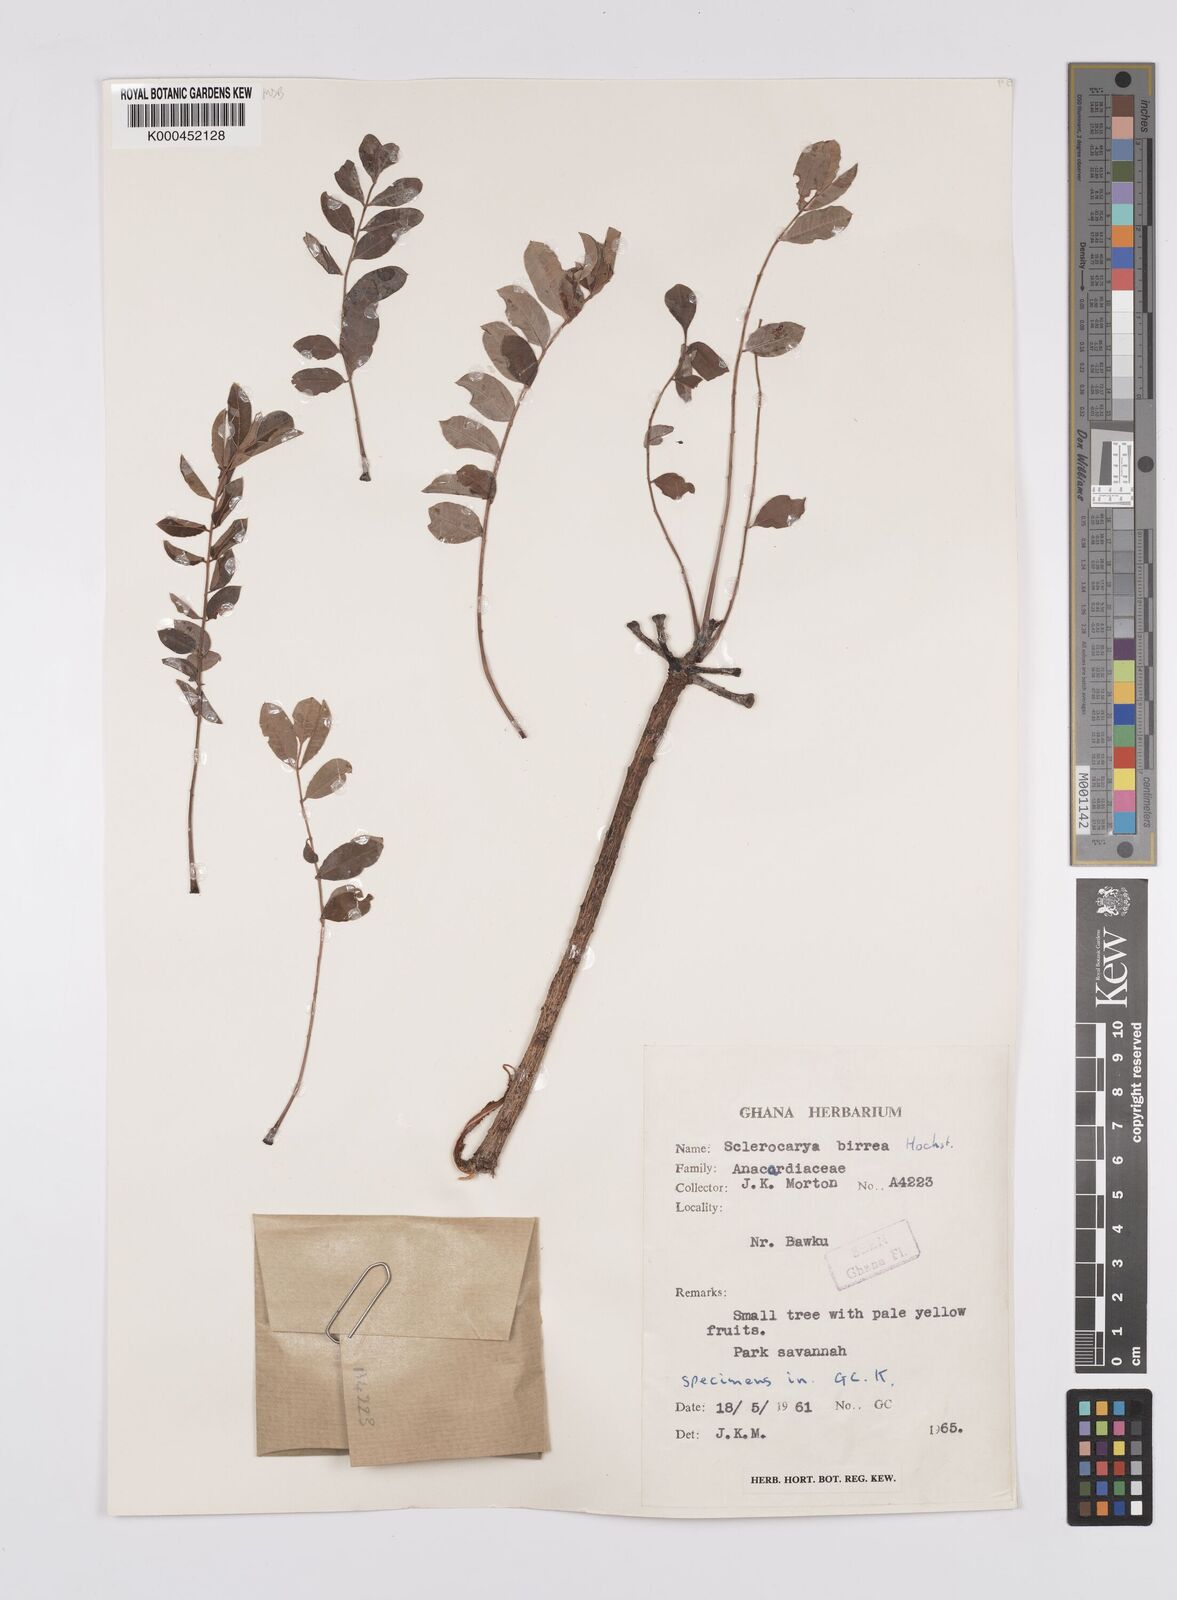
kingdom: Plantae
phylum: Tracheophyta
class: Magnoliopsida
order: Sapindales
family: Anacardiaceae
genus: Sclerocarya
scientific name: Sclerocarya birrea
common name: Marula
